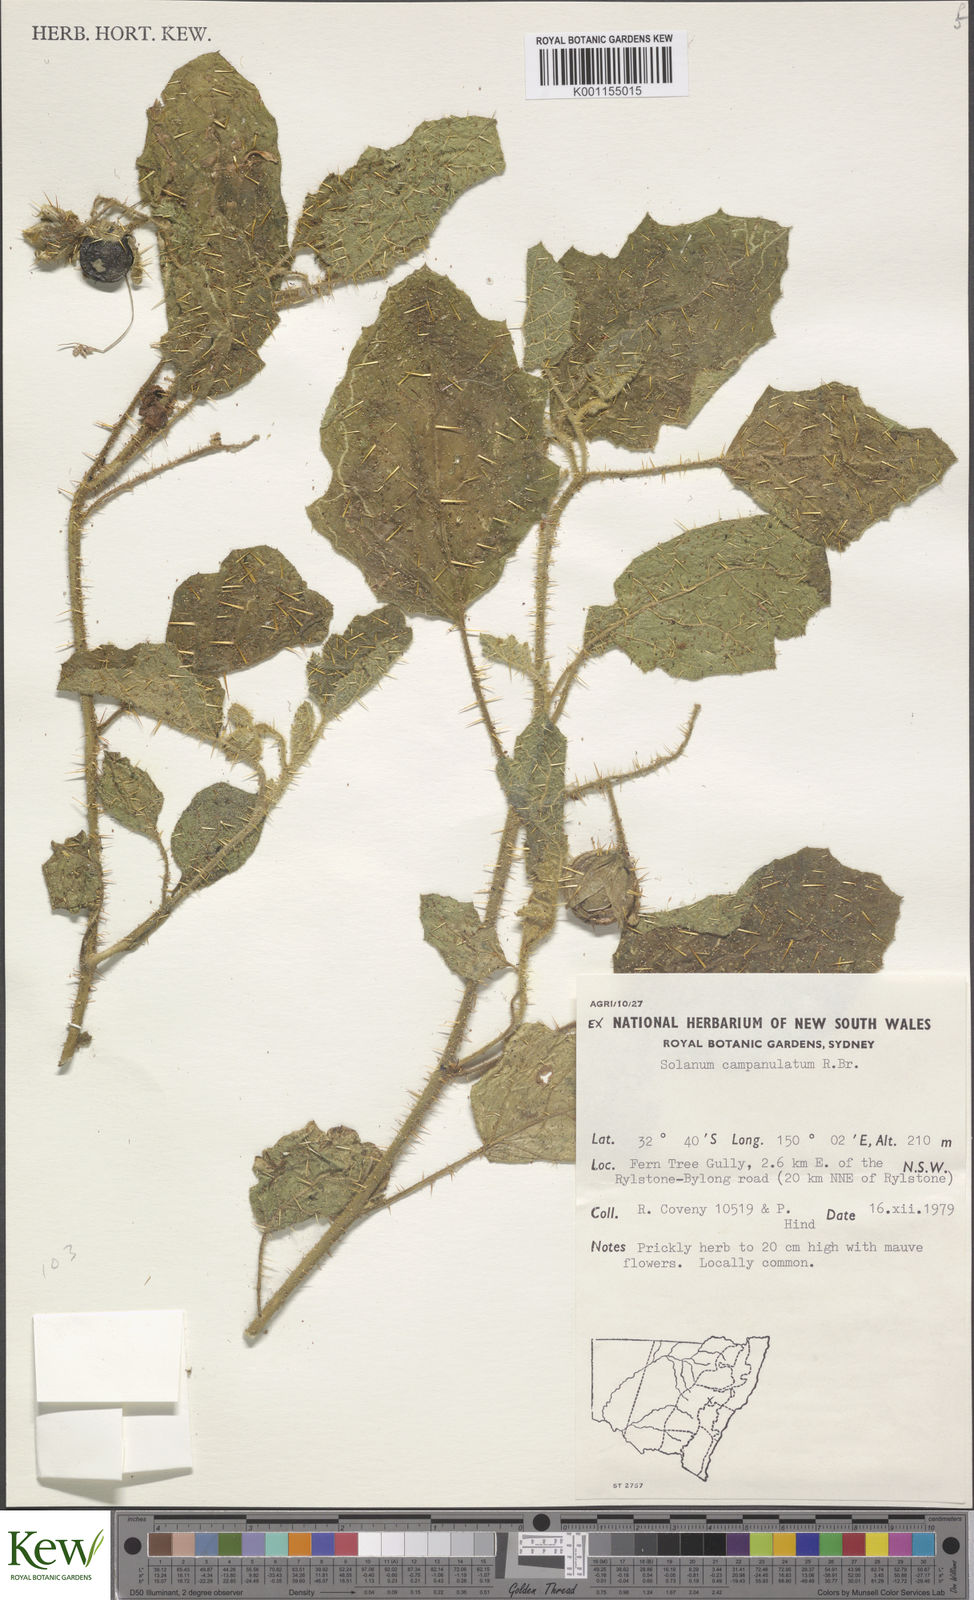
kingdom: Plantae
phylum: Tracheophyta
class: Magnoliopsida
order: Solanales
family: Solanaceae
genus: Solanum
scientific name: Solanum campanulatum
